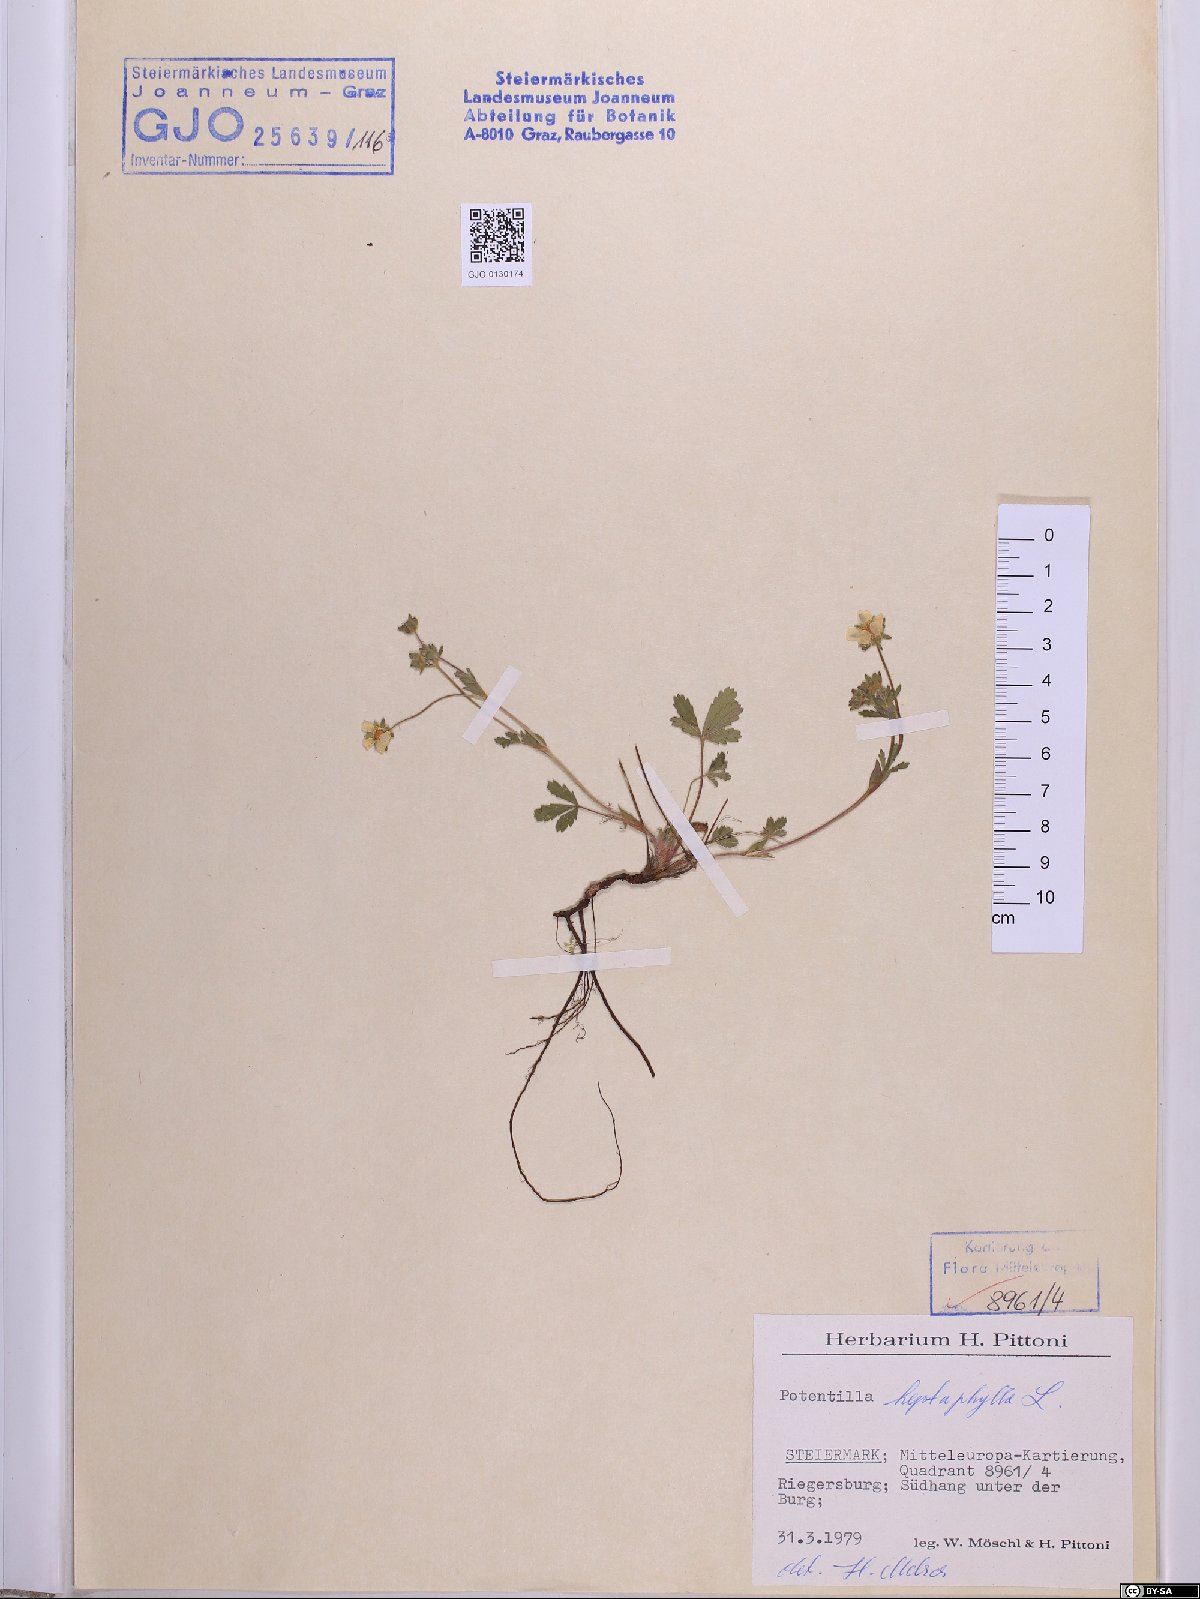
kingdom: Plantae
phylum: Tracheophyta
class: Magnoliopsida
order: Rosales
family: Rosaceae
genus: Potentilla
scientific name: Potentilla heptaphylla
